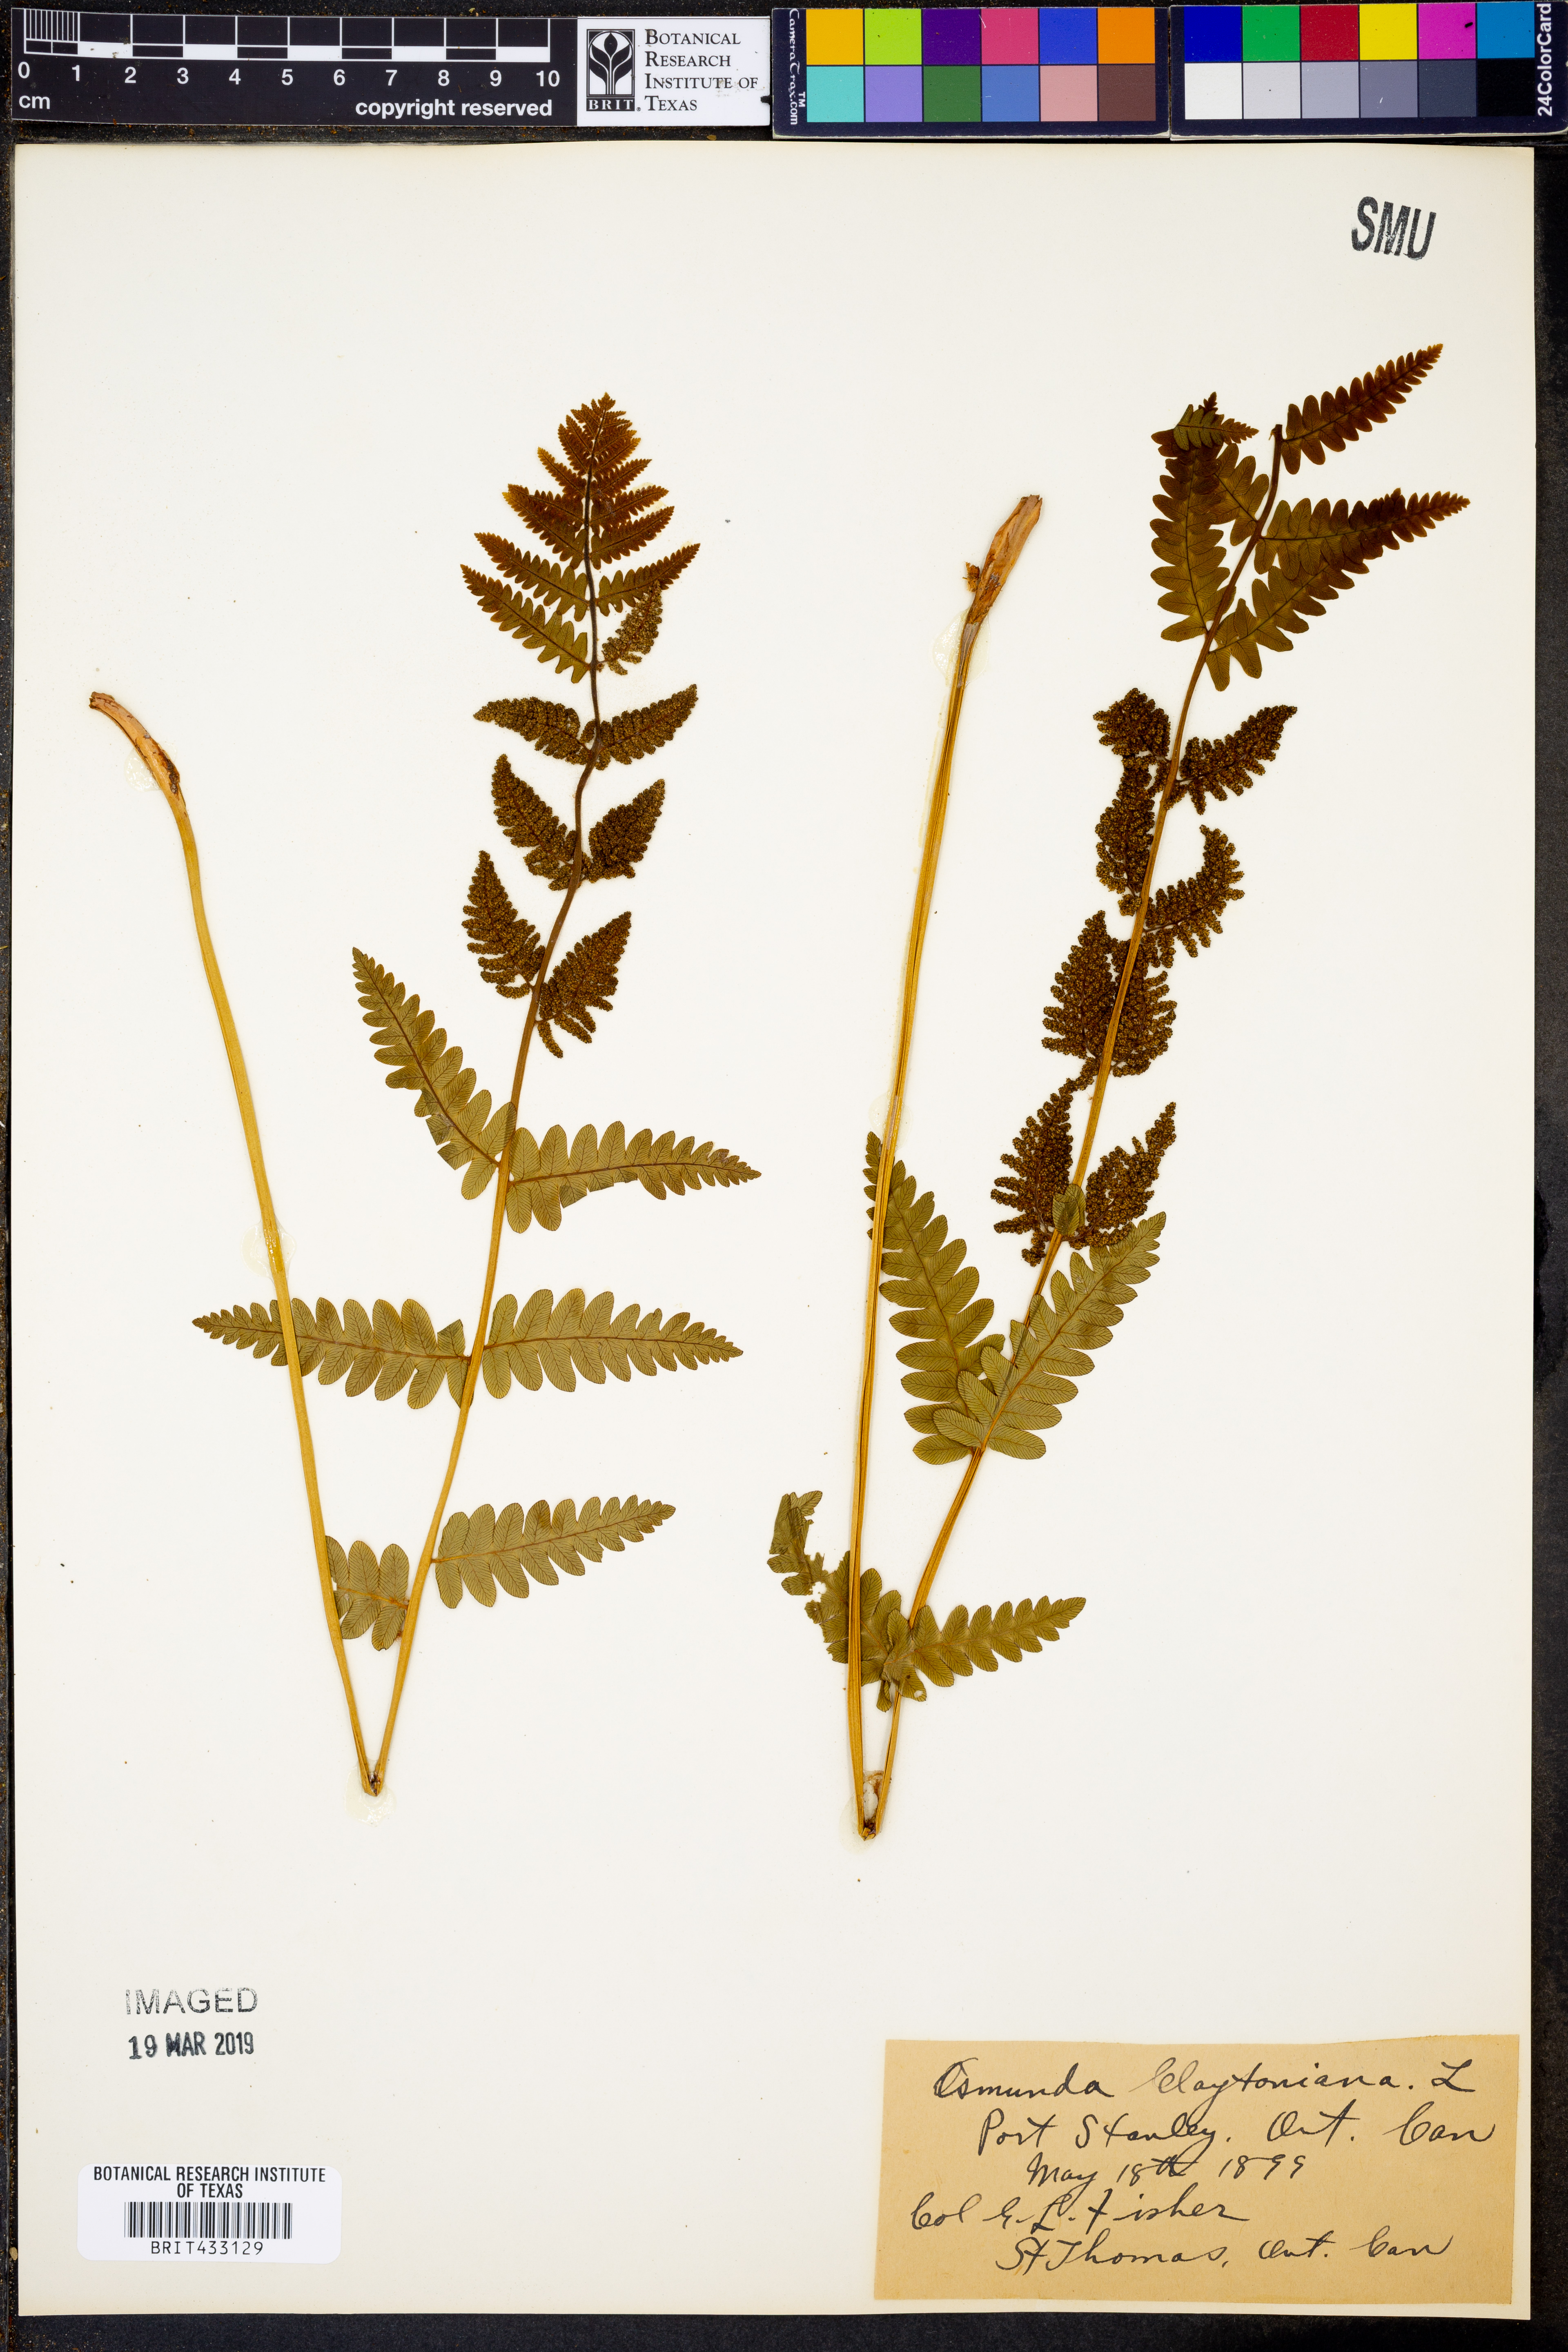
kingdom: Plantae
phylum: Tracheophyta
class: Polypodiopsida
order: Osmundales
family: Osmundaceae
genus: Claytosmunda
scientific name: Claytosmunda claytoniana
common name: Clayton's fern
